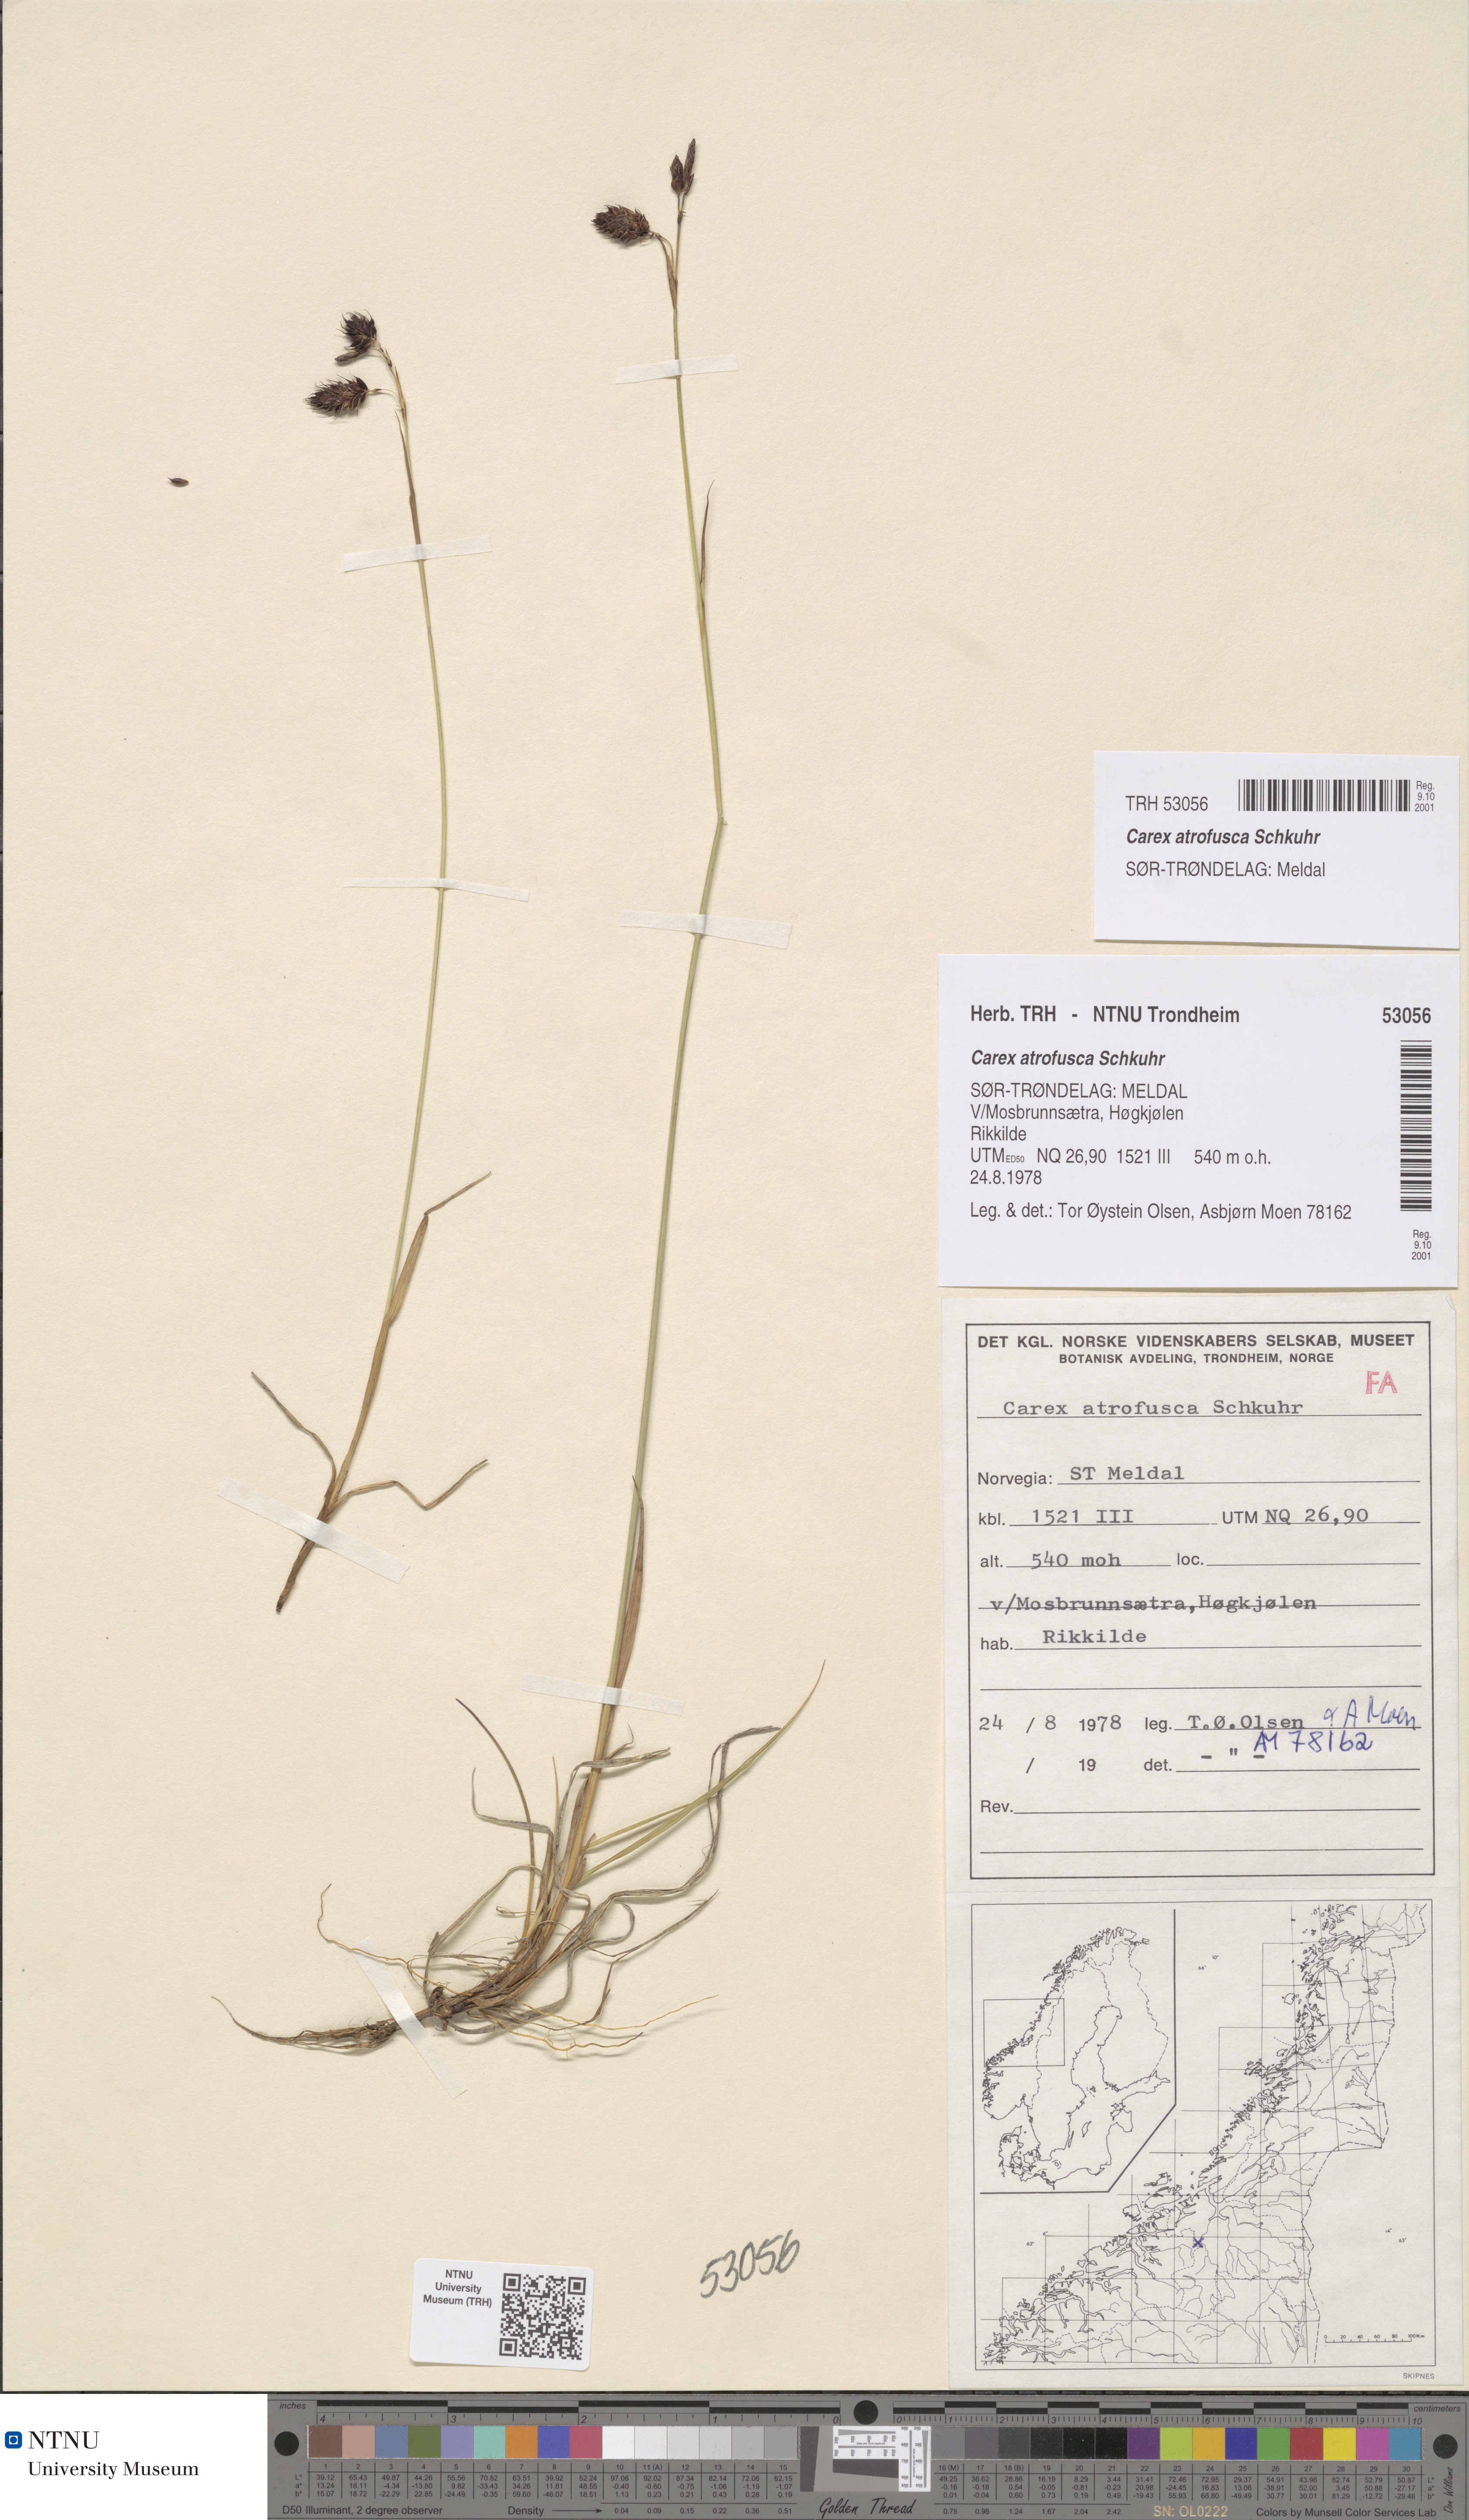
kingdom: Plantae
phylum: Tracheophyta
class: Liliopsida
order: Poales
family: Cyperaceae
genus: Carex
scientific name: Carex atrofusca
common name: Scorched alpine-sedge
